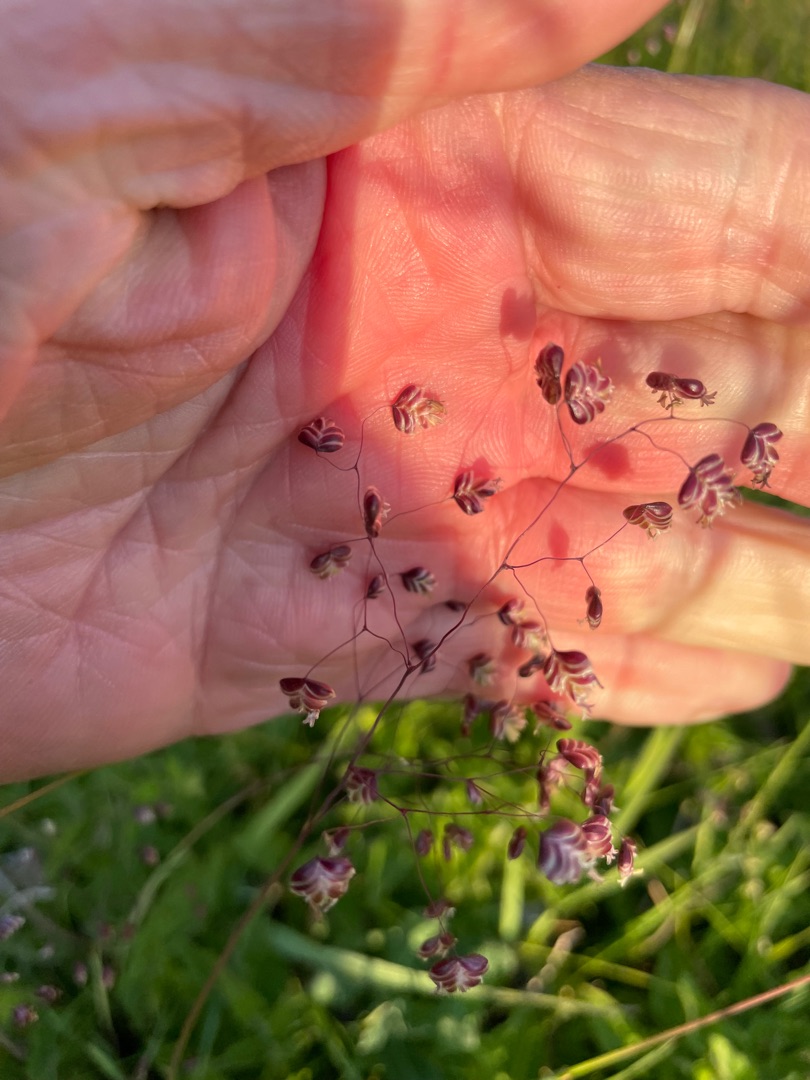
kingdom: Plantae
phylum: Tracheophyta
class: Liliopsida
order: Poales
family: Poaceae
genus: Briza
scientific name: Briza media
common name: Hjertegræs
